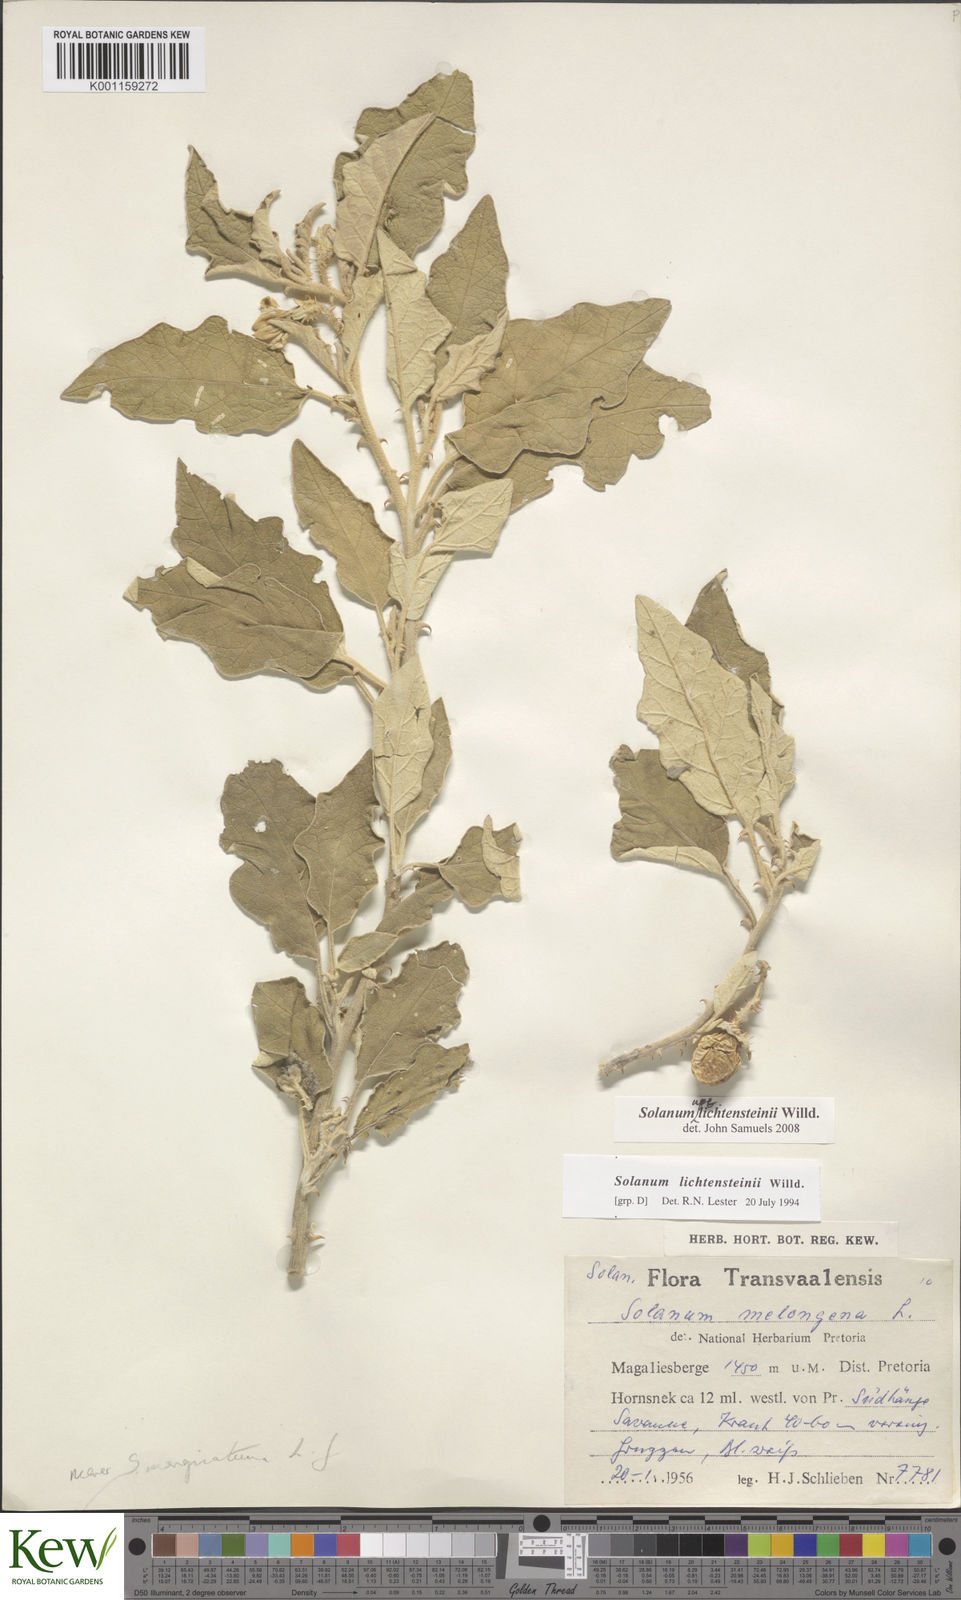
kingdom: Plantae
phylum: Tracheophyta
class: Magnoliopsida
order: Solanales
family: Solanaceae
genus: Solanum
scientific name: Solanum lichtensteinii
